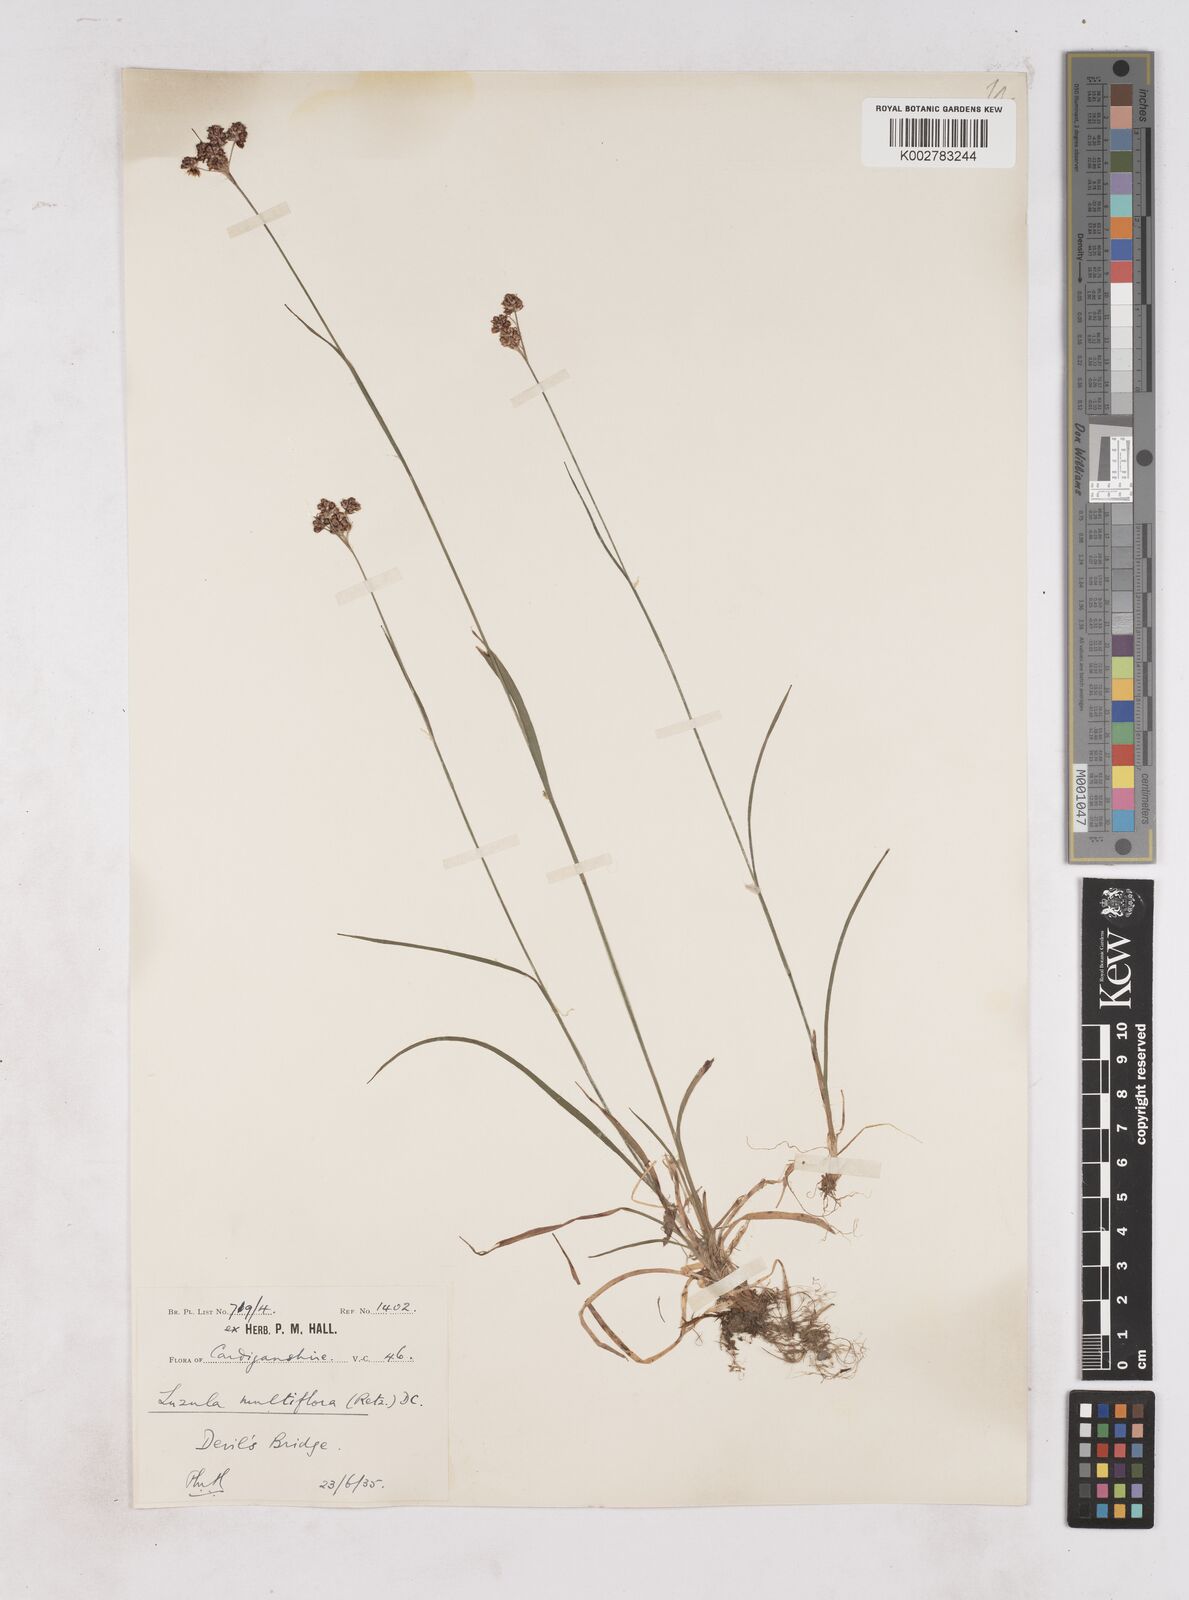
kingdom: Plantae
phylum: Tracheophyta
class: Liliopsida
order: Poales
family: Juncaceae
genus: Luzula
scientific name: Luzula multiflora
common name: Heath wood-rush
